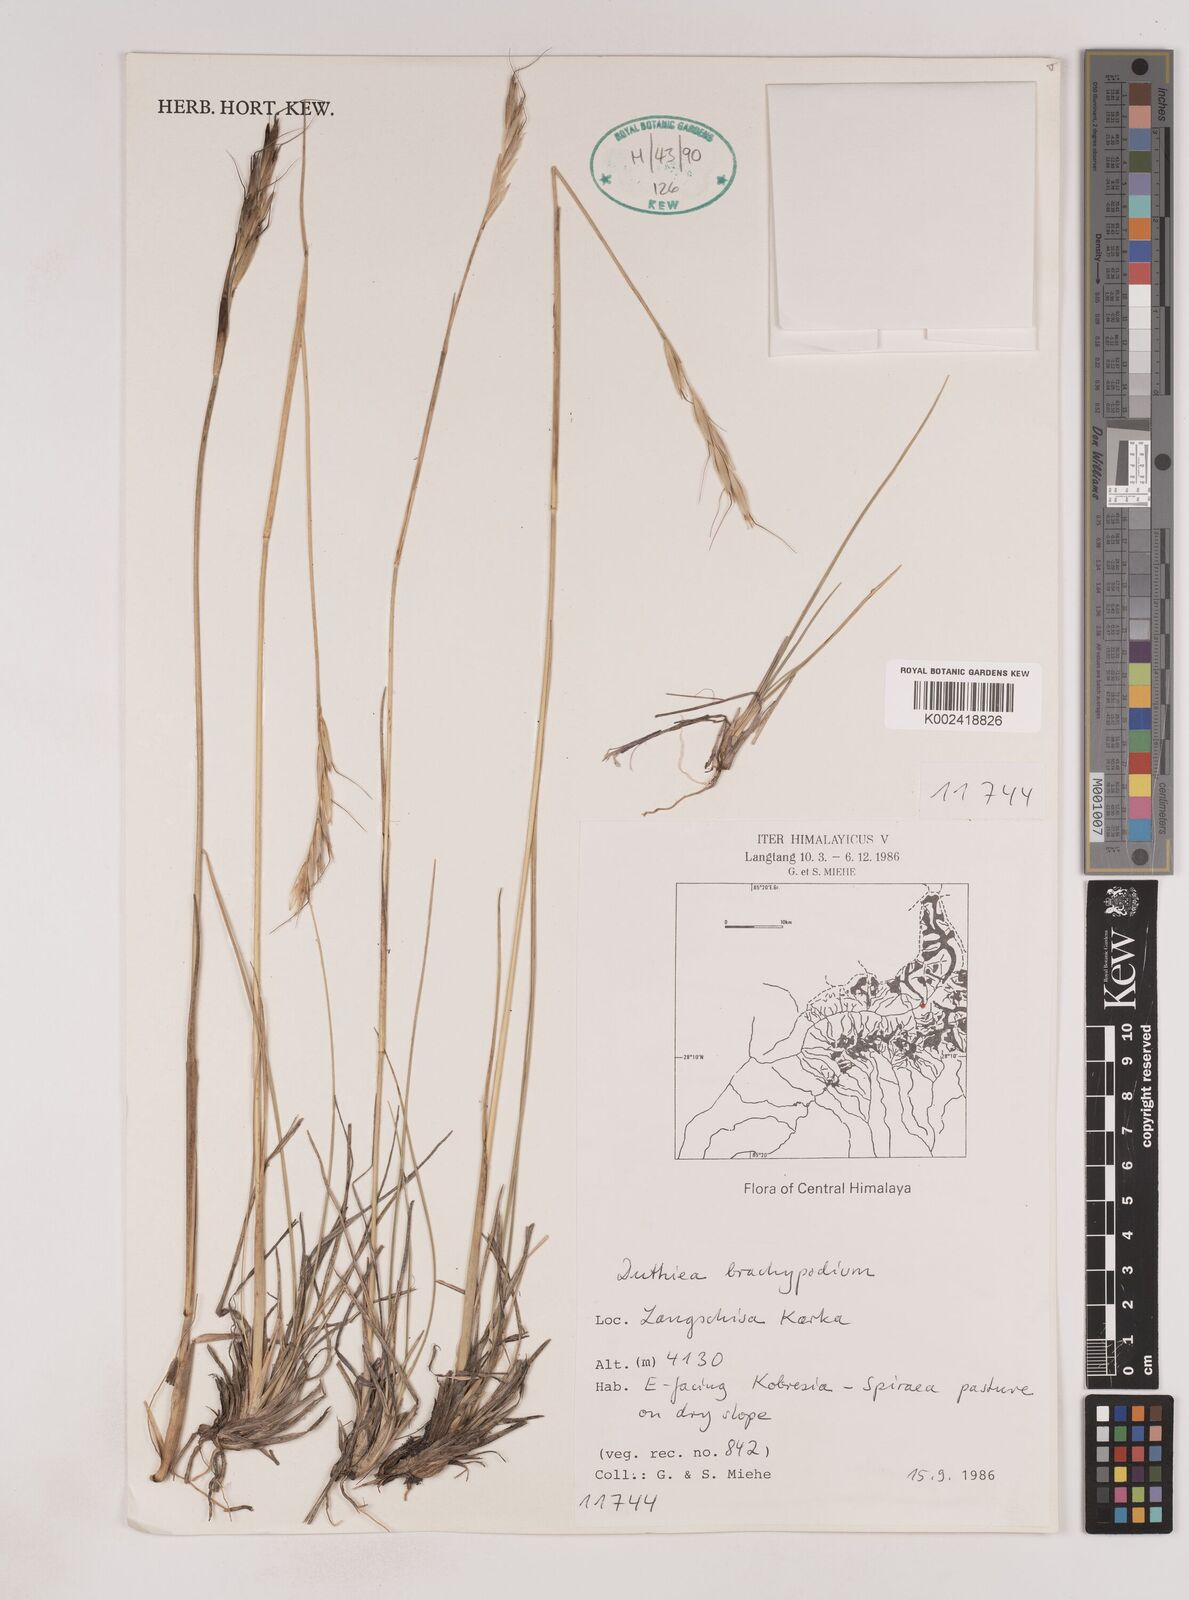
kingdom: Plantae
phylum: Tracheophyta
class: Liliopsida
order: Poales
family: Poaceae
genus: Duthiea
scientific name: Duthiea brachypodium
